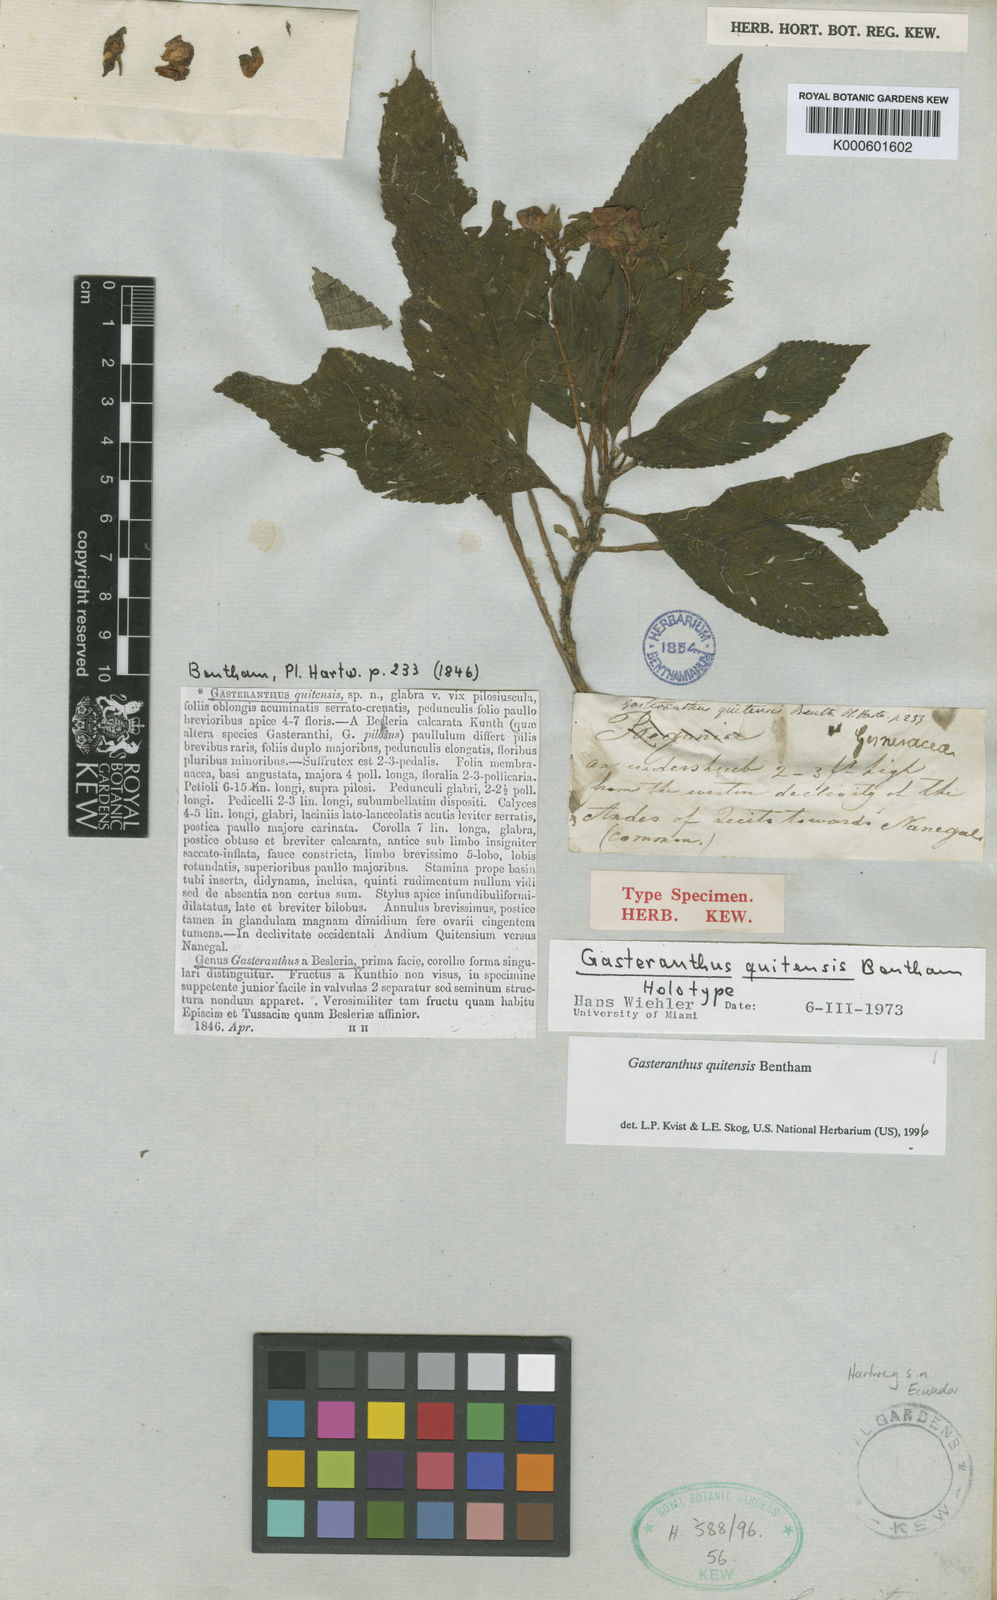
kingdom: Plantae
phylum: Tracheophyta
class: Magnoliopsida
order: Lamiales
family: Gesneriaceae
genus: Gasteranthus
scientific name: Gasteranthus quitensis
